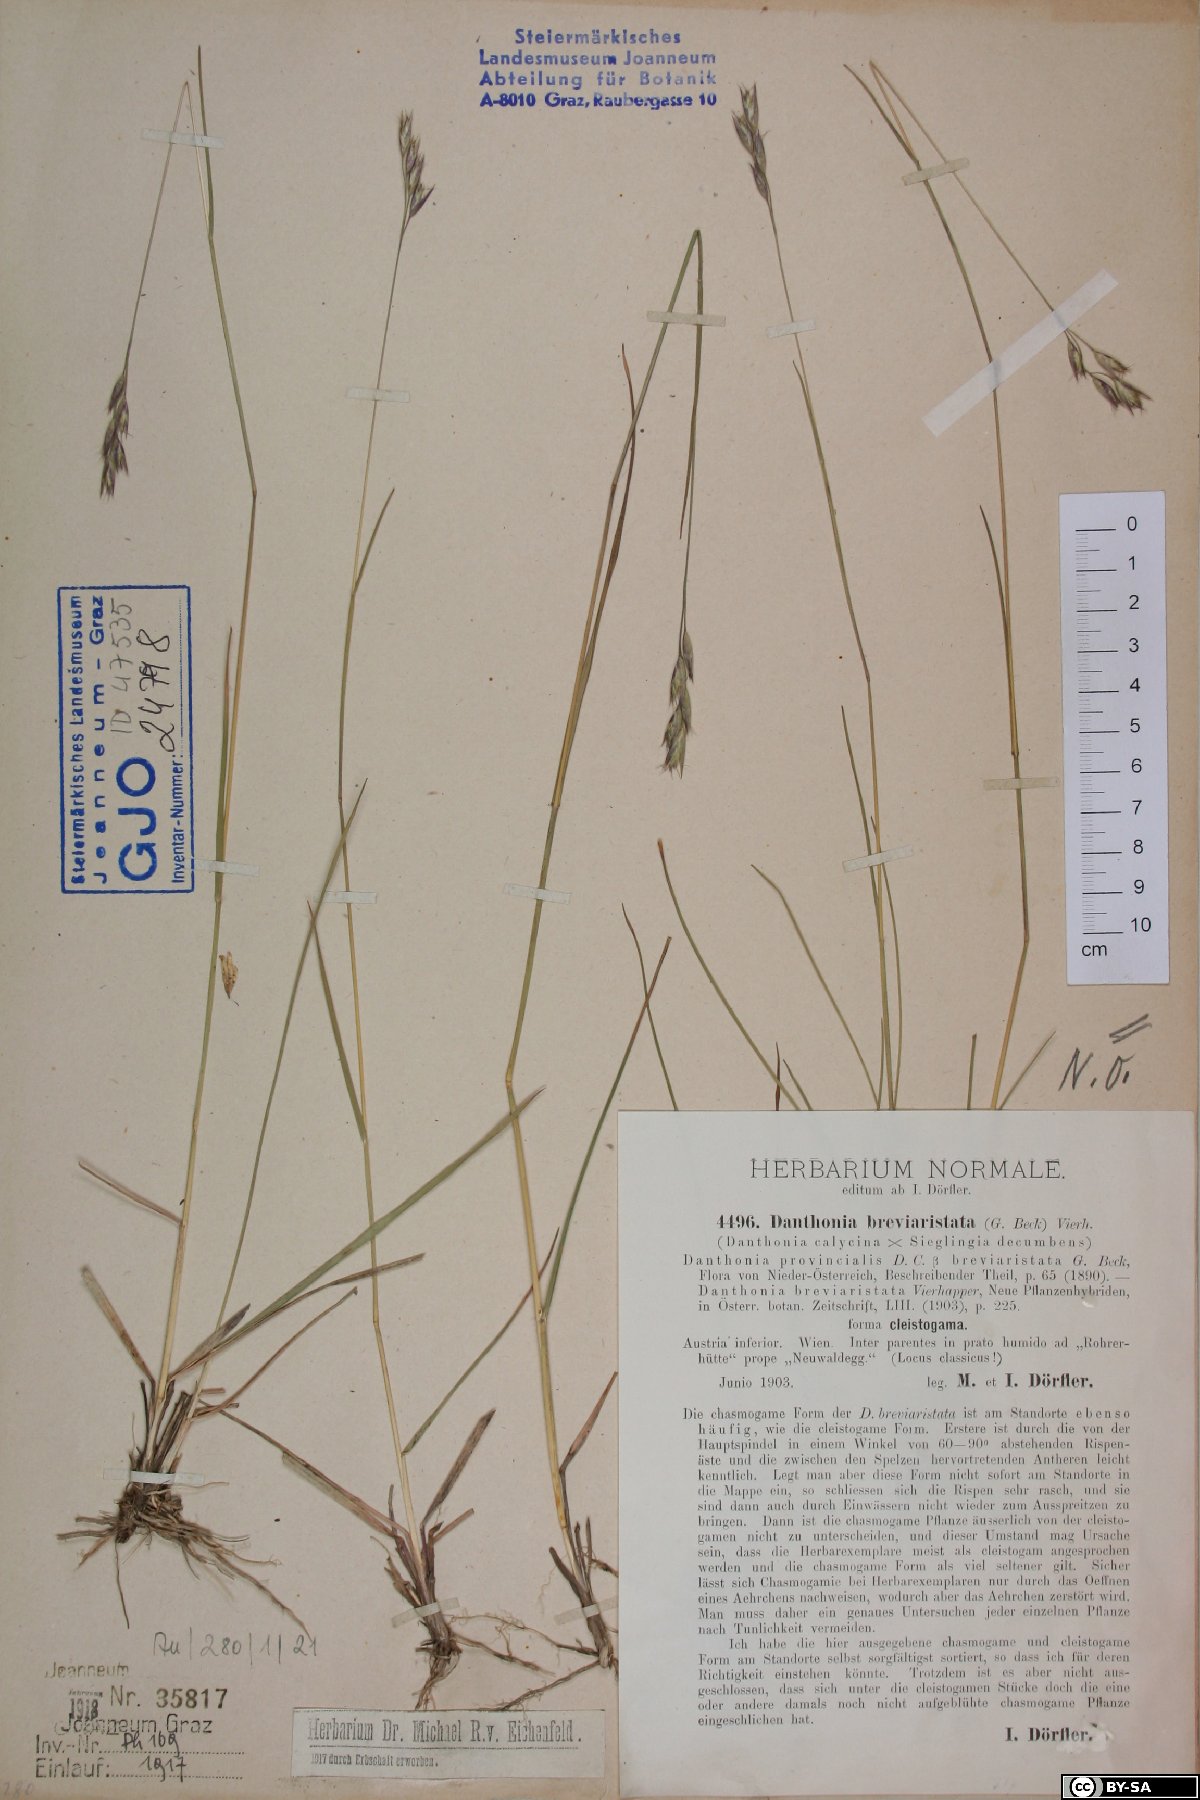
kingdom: Plantae
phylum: Tracheophyta
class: Liliopsida
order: Poales
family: Poaceae
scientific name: Poaceae
